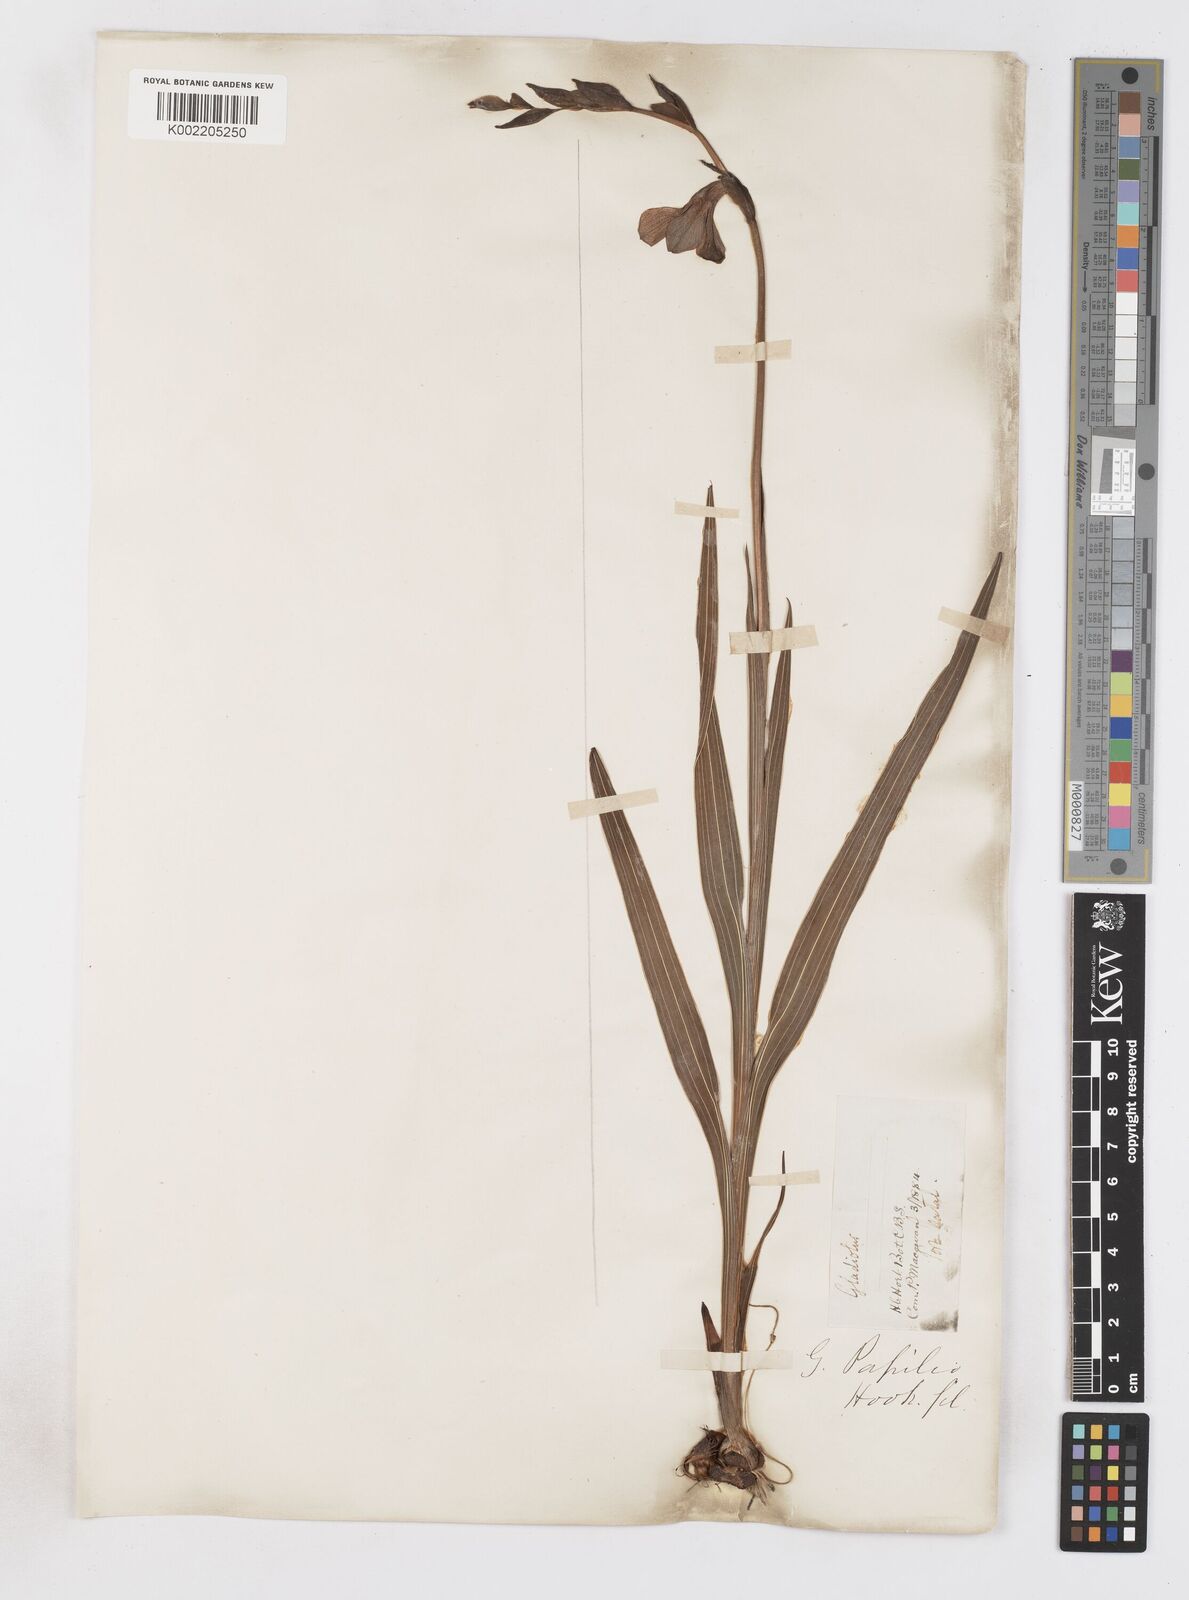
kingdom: Plantae
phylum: Tracheophyta
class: Liliopsida
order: Asparagales
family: Iridaceae
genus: Gladiolus
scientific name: Gladiolus papilio
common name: Goldblotch gladiolus
